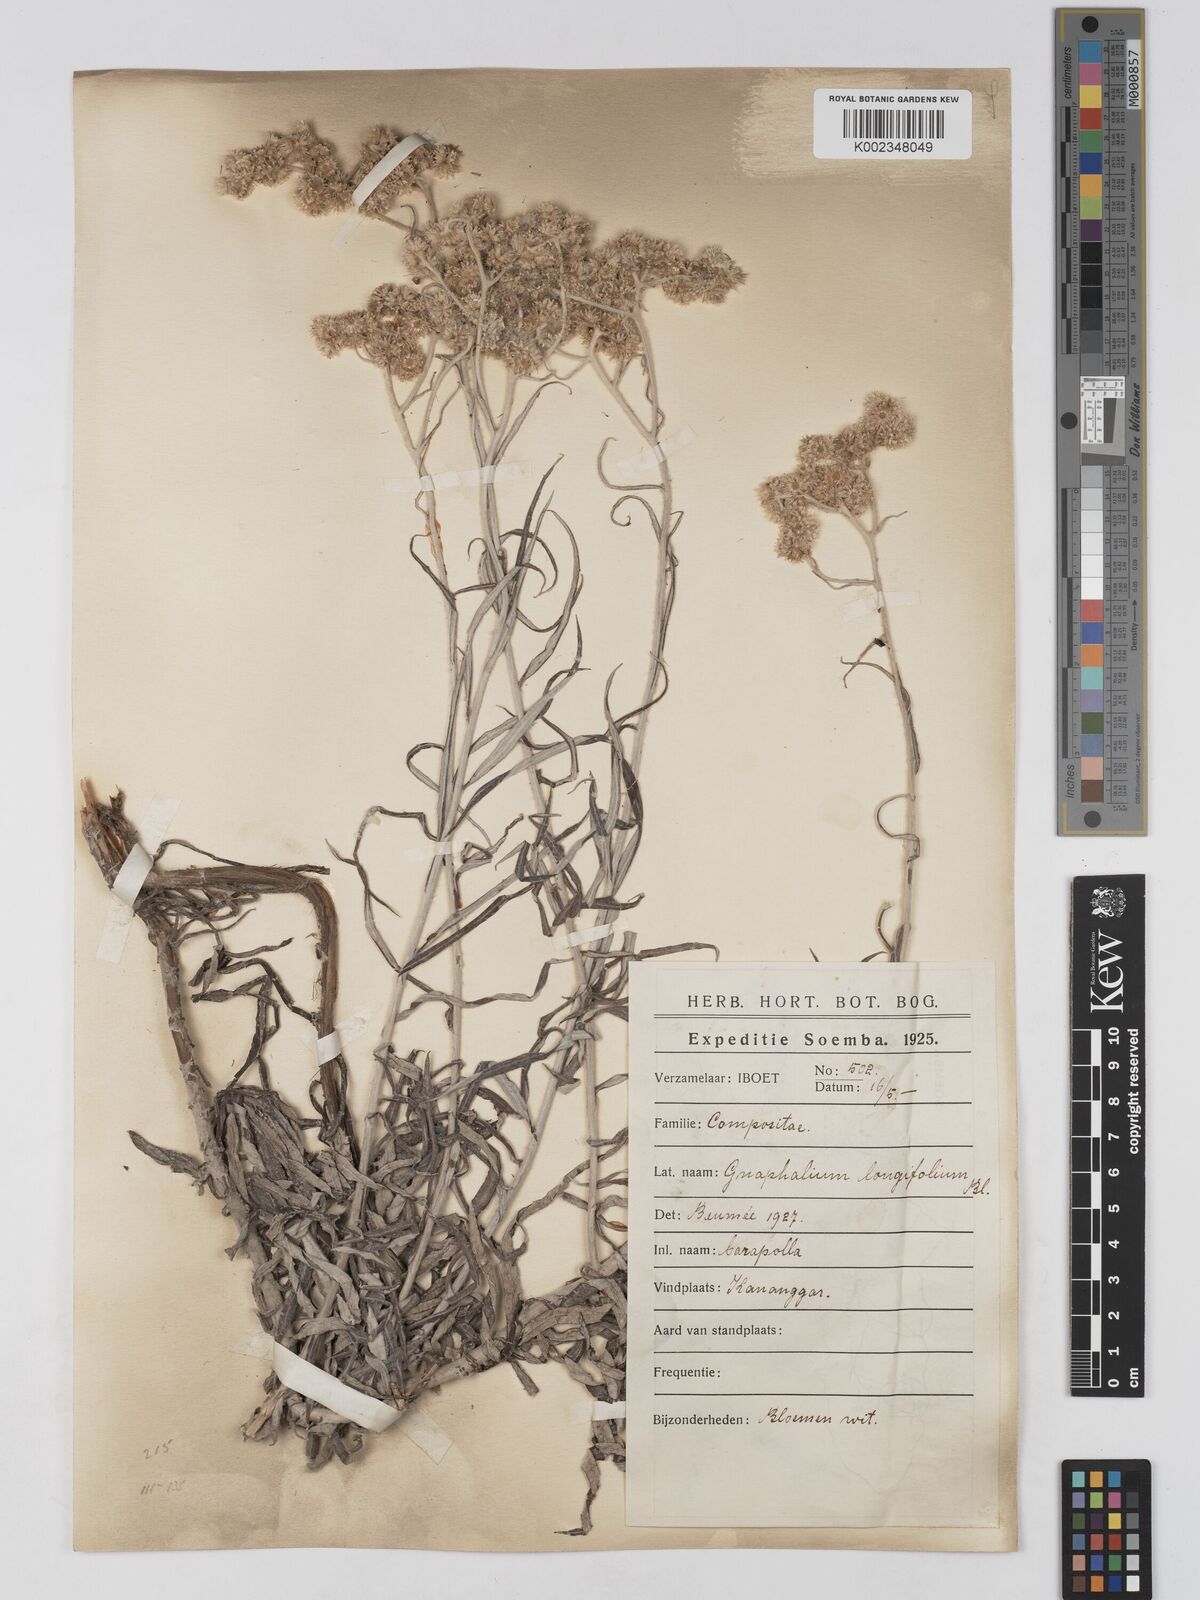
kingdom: Plantae
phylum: Tracheophyta
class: Magnoliopsida
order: Asterales
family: Asteraceae
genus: Anaphalis
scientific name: Anaphalis longifolia
